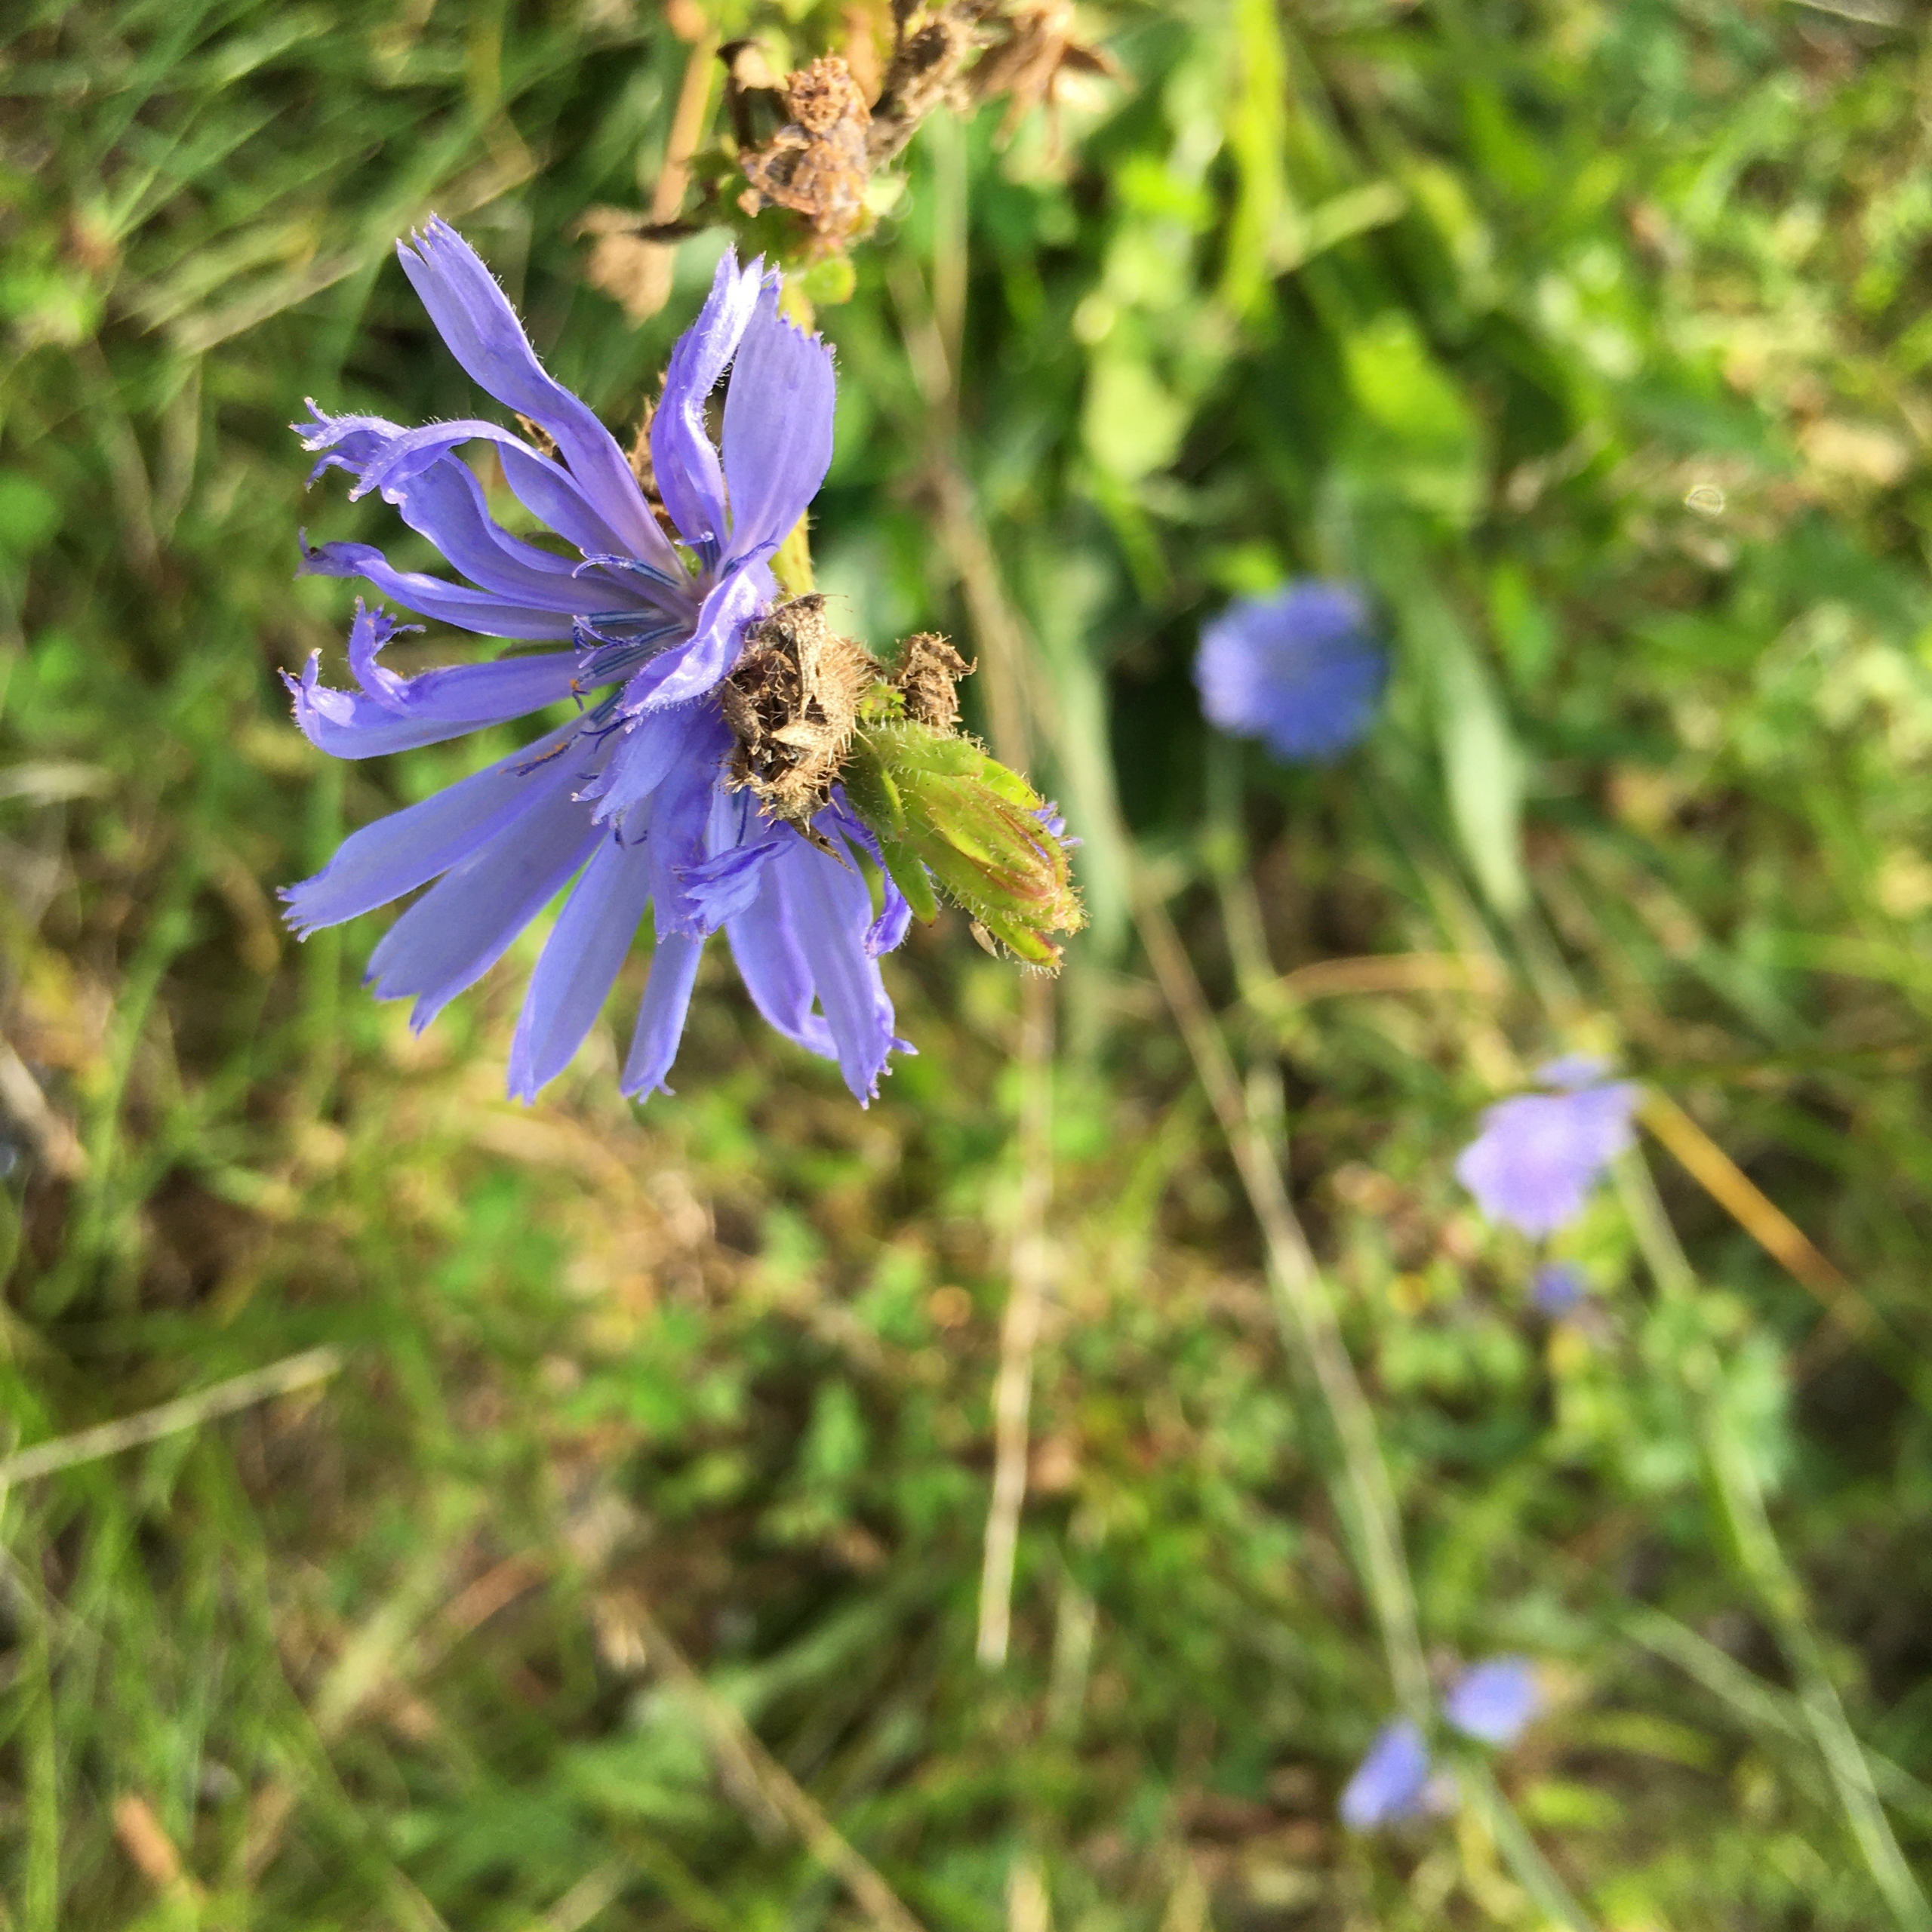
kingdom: Plantae
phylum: Tracheophyta
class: Magnoliopsida
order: Asterales
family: Asteraceae
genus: Cichorium
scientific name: Cichorium intybus
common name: Cikorie
